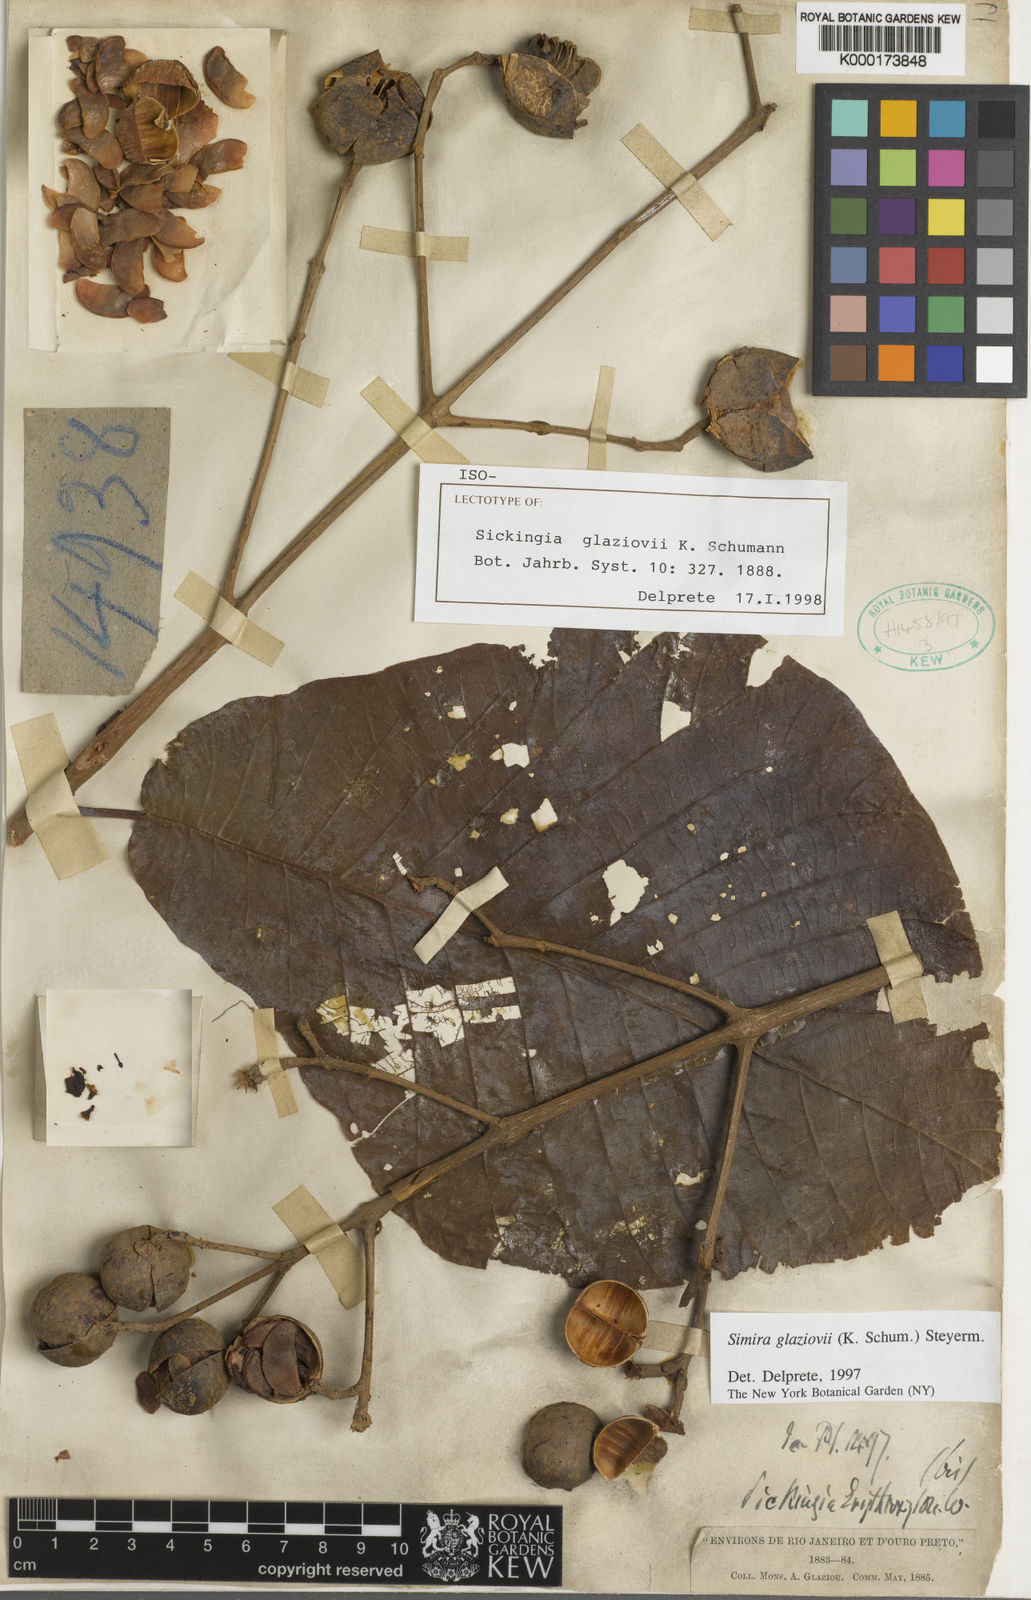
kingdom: Plantae
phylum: Tracheophyta
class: Magnoliopsida
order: Gentianales
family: Rubiaceae
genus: Simira
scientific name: Simira alba
